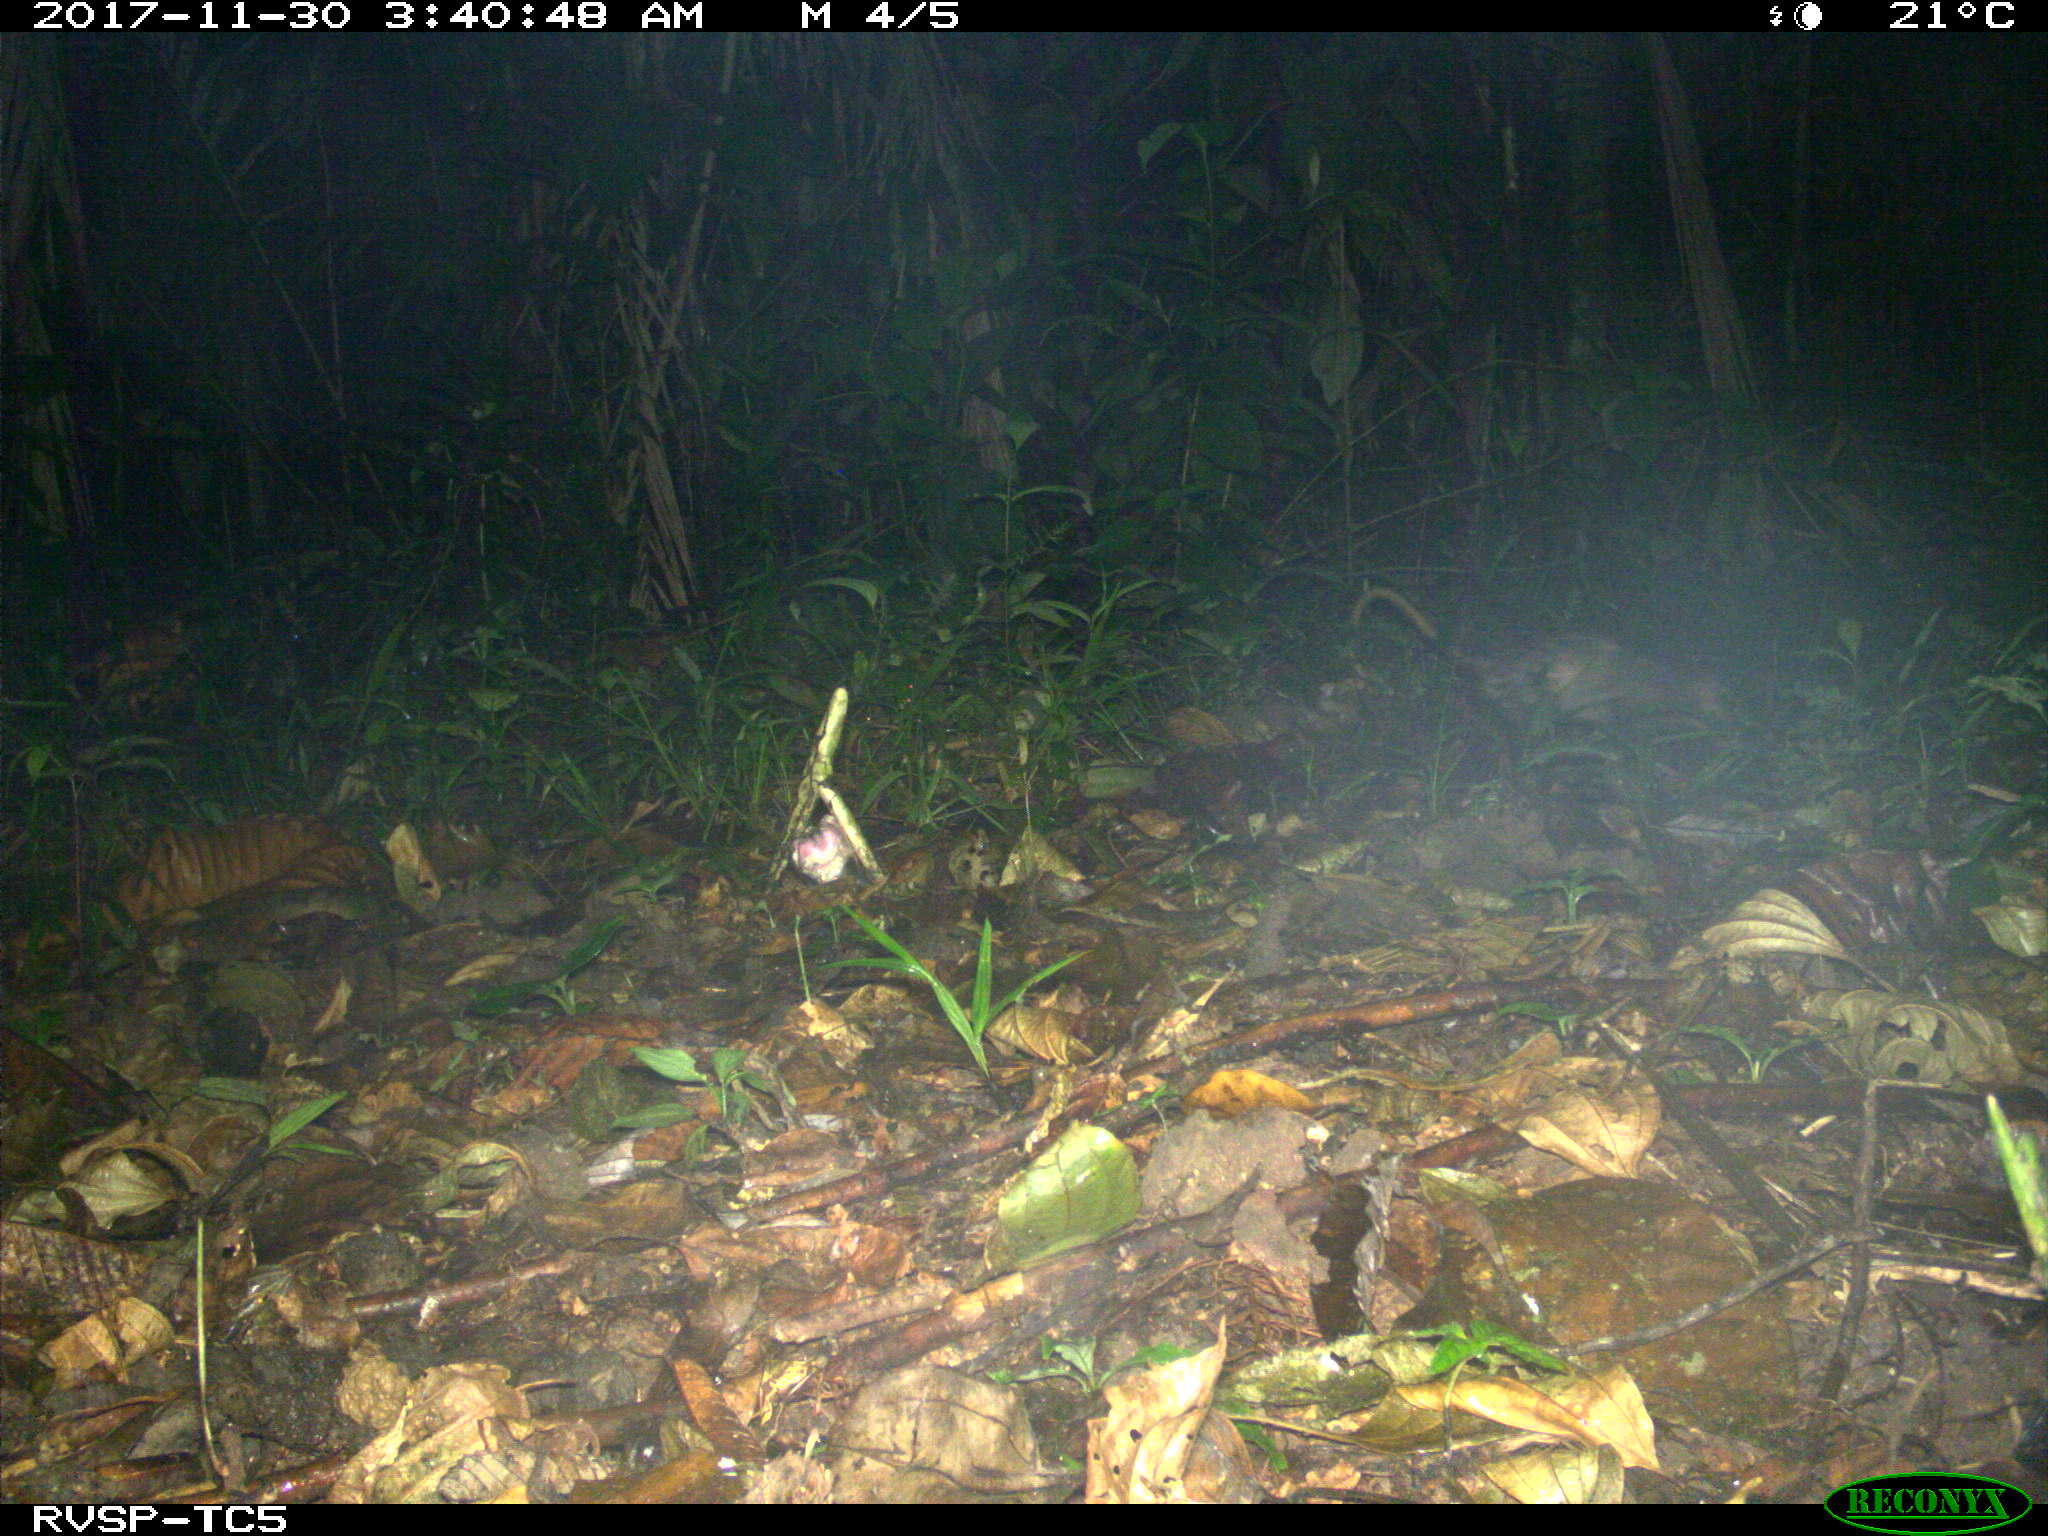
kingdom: Animalia
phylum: Chordata
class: Mammalia
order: Didelphimorphia
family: Didelphidae
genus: Didelphis
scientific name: Didelphis marsupialis
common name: Common opossum
